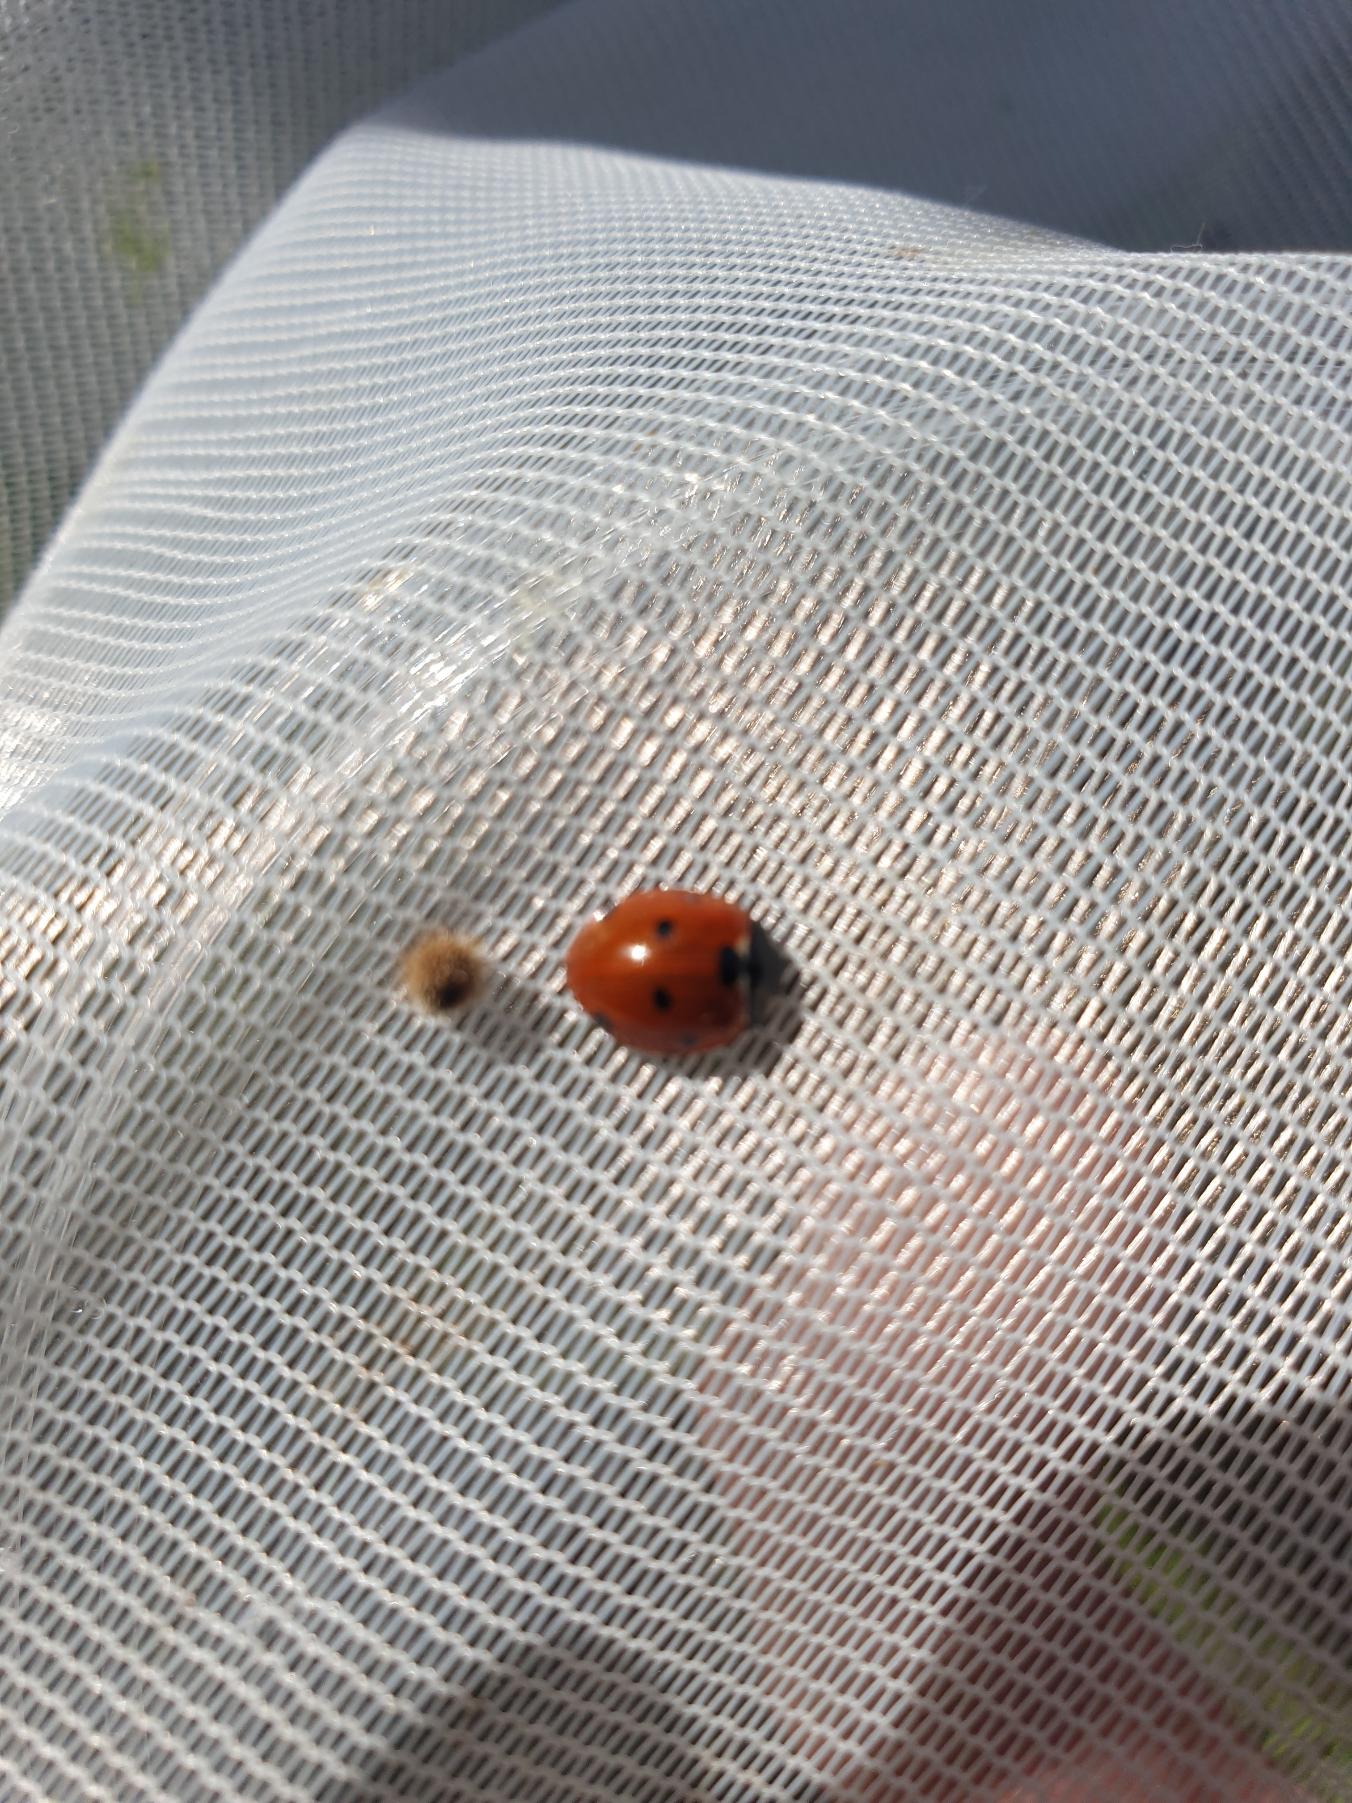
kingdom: Animalia
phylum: Arthropoda
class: Insecta
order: Coleoptera
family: Coccinellidae
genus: Coccinella
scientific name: Coccinella septempunctata
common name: Syvplettet mariehøne
